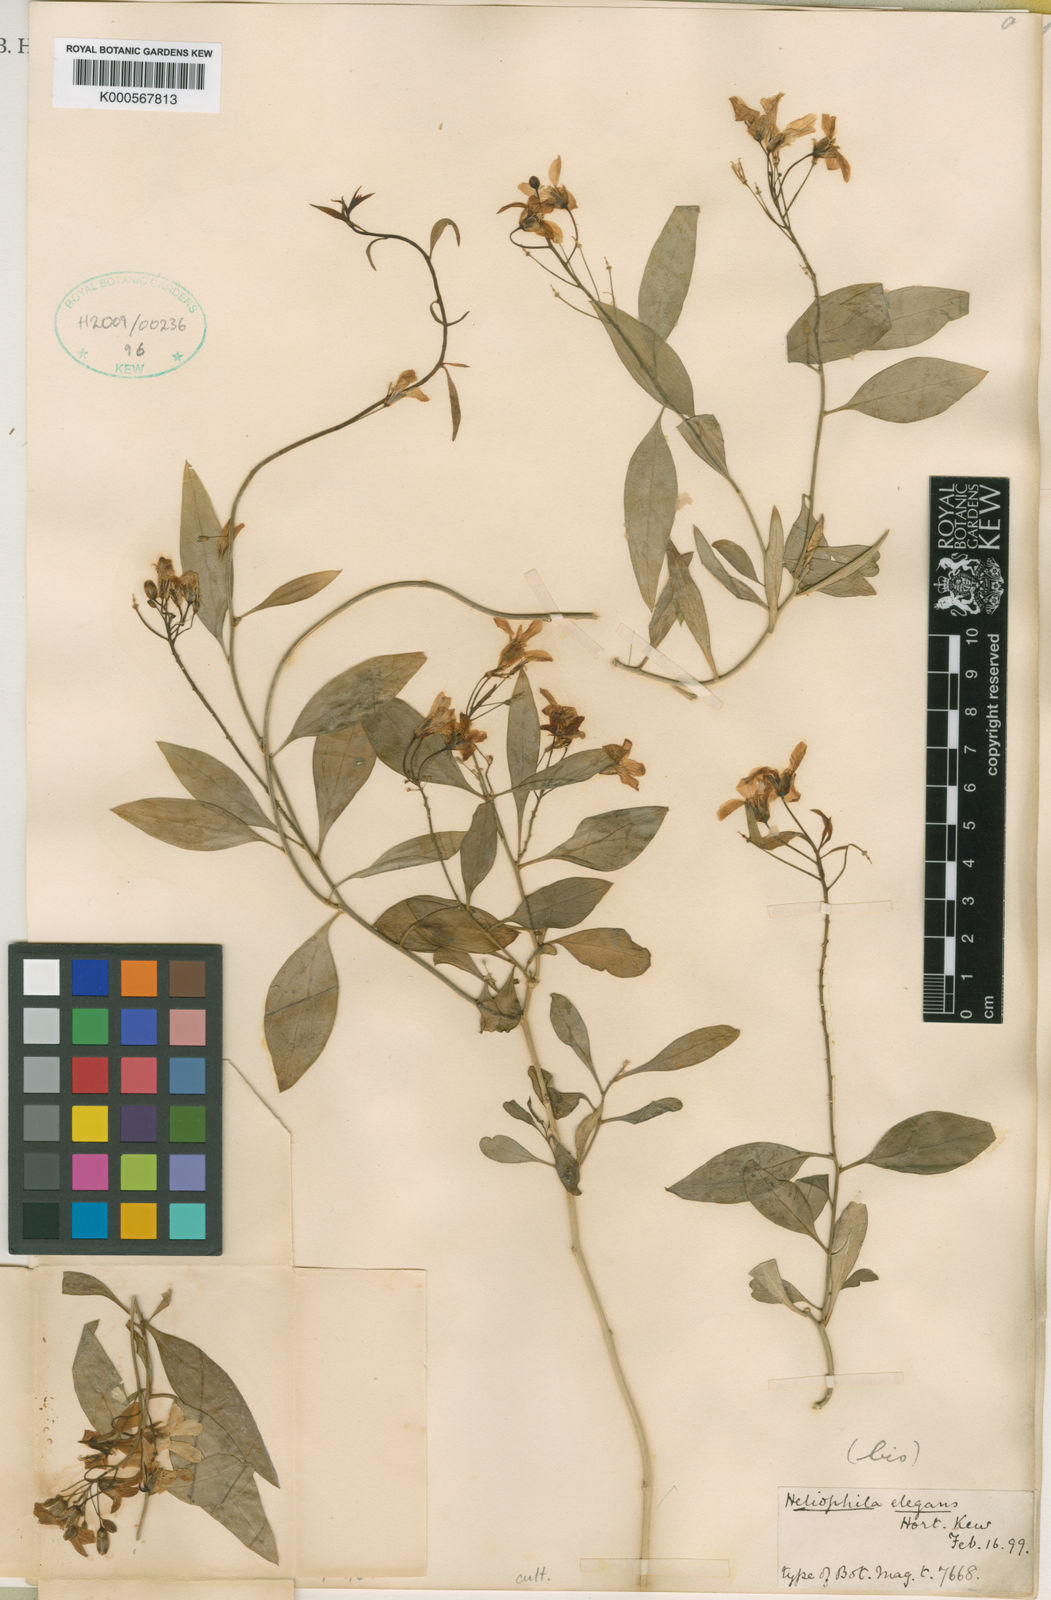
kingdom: Plantae
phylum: Tracheophyta
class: Magnoliopsida
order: Brassicales
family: Brassicaceae
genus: Heliophila
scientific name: Heliophila scandens
